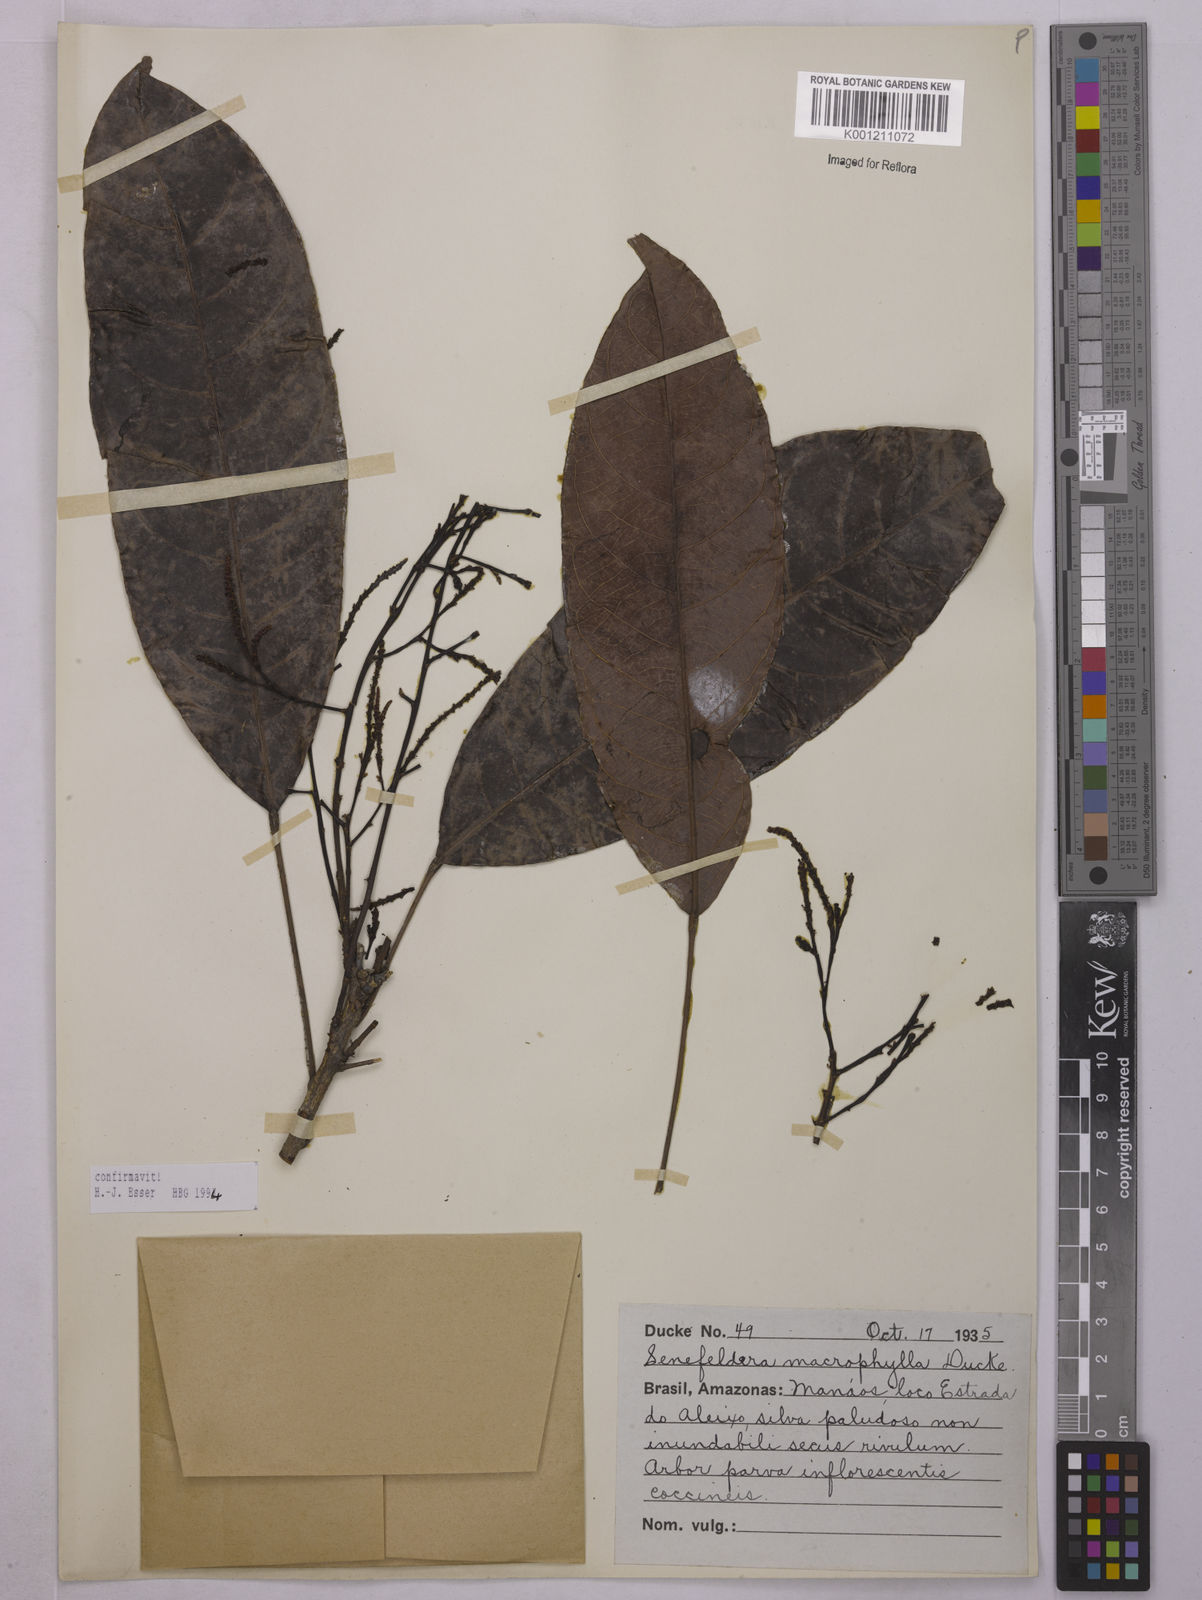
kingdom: Plantae
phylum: Tracheophyta
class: Magnoliopsida
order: Malpighiales
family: Euphorbiaceae
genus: Rhodothyrsus
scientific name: Rhodothyrsus macrophyllus
